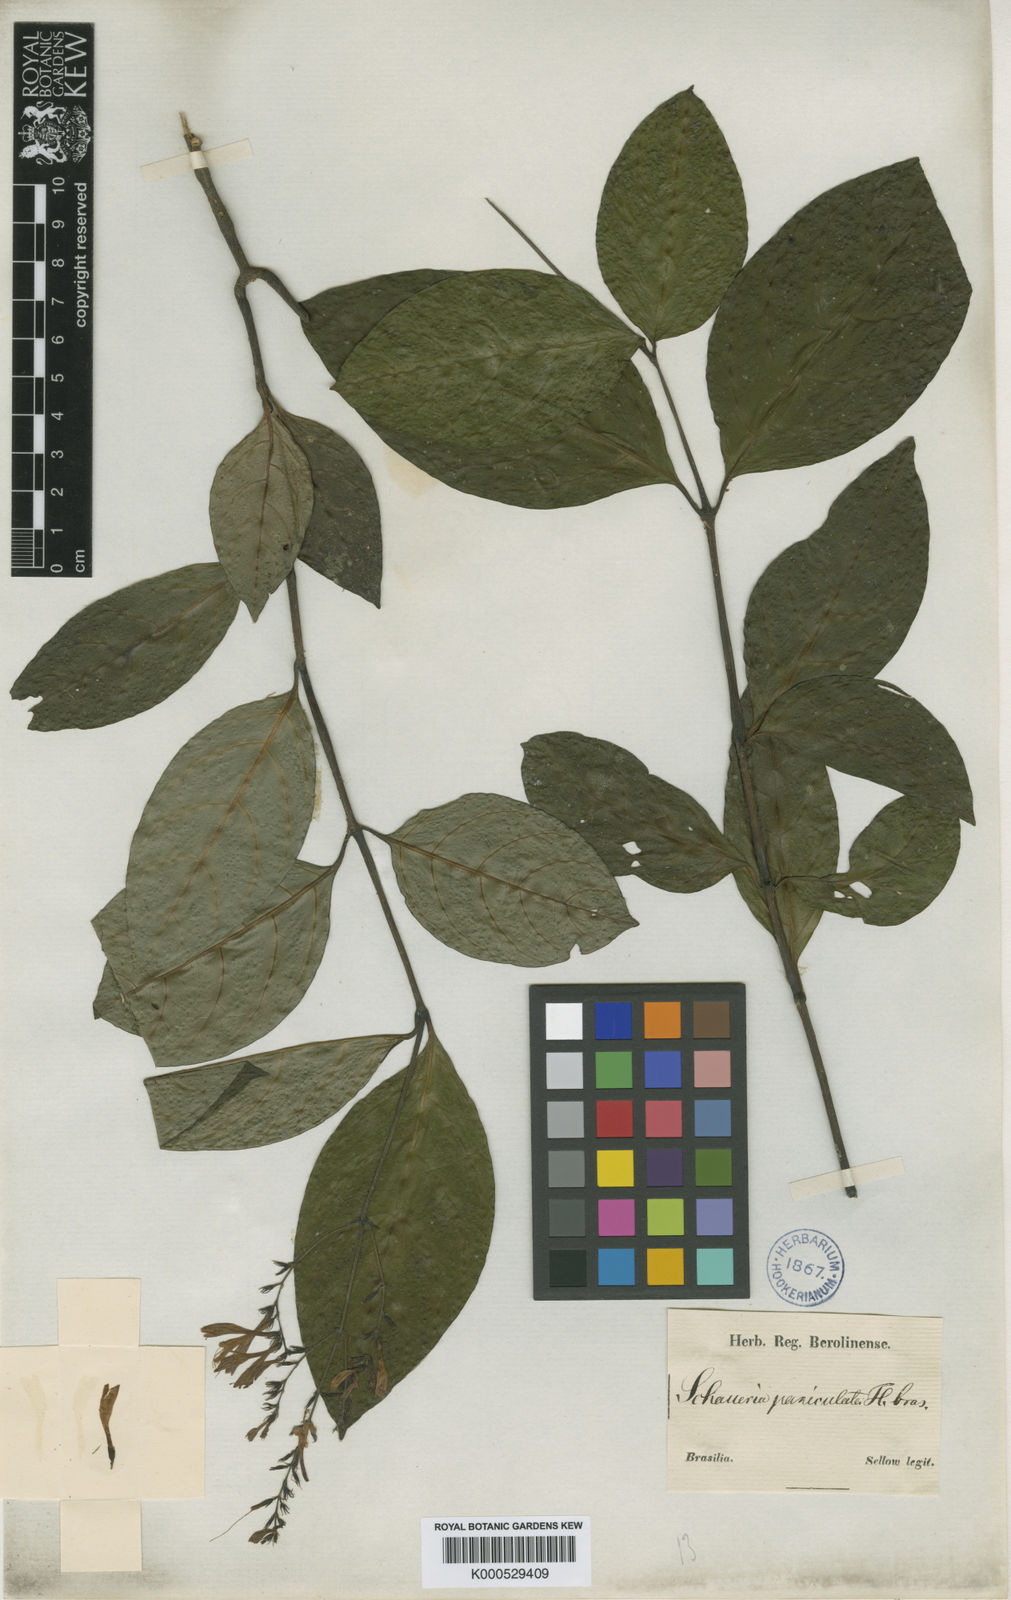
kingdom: Plantae
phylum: Tracheophyta
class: Magnoliopsida
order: Lamiales
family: Acanthaceae
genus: Pseuderanthemum
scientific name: Pseuderanthemum riedelianum
